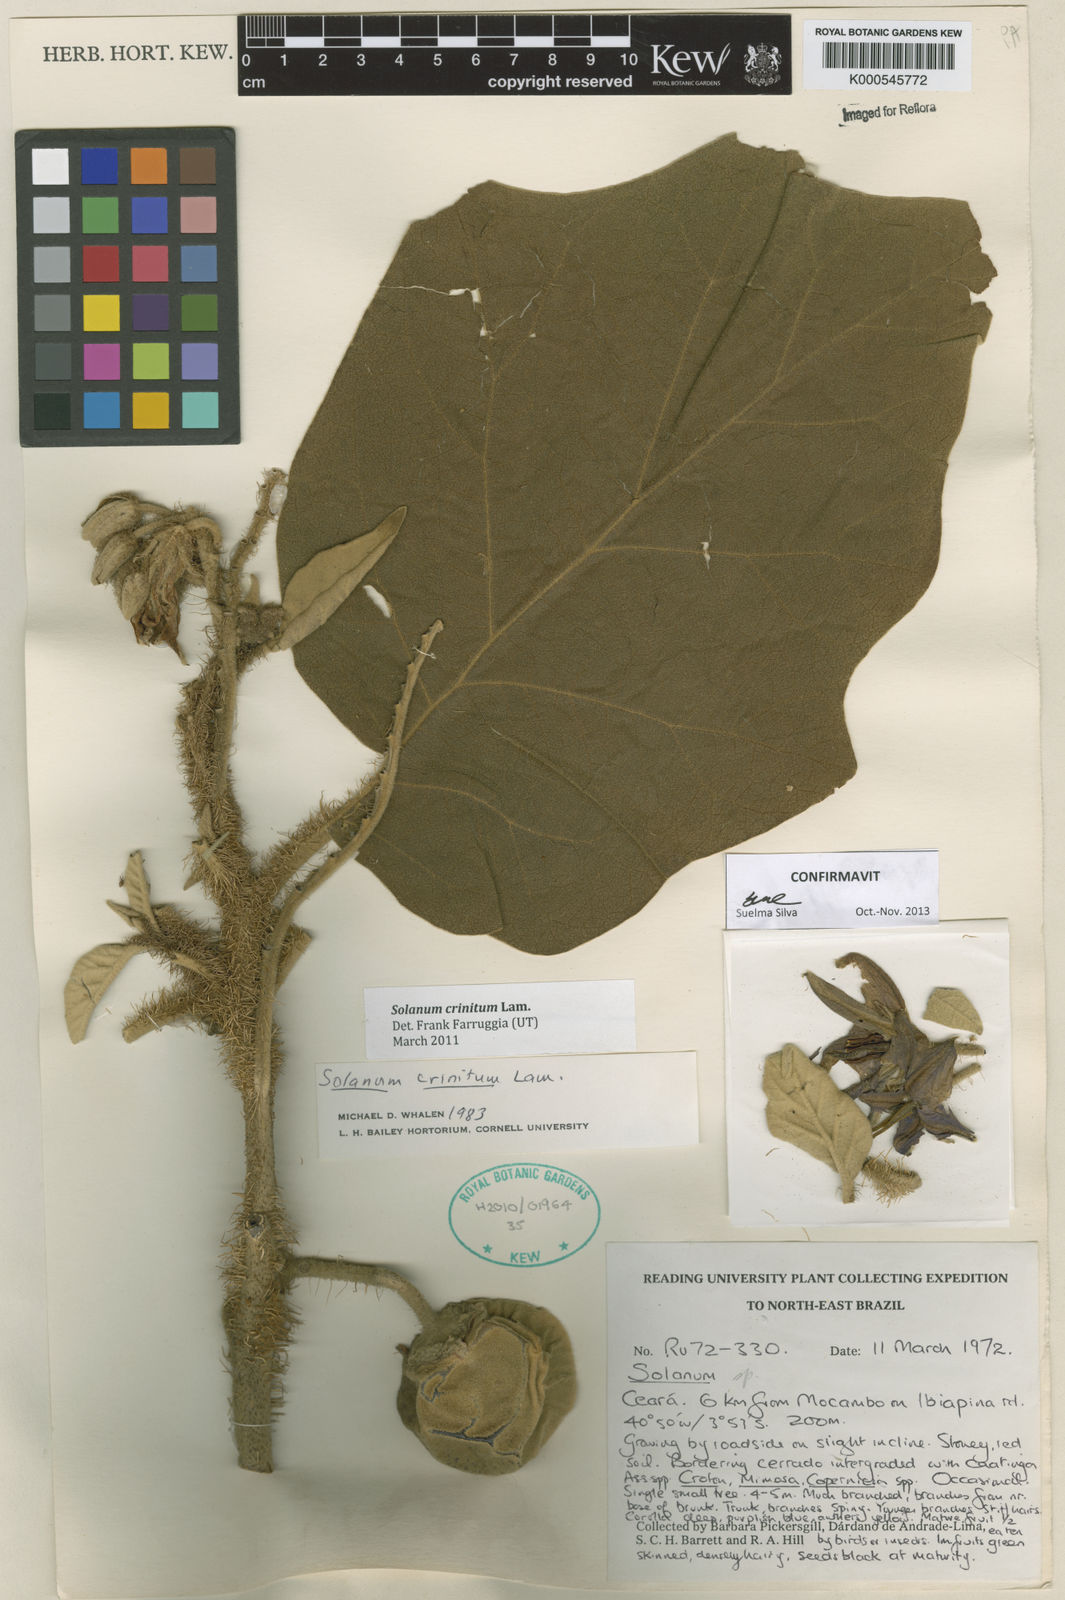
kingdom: Plantae
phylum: Tracheophyta
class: Magnoliopsida
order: Solanales
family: Solanaceae
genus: Solanum
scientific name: Solanum crinitum
